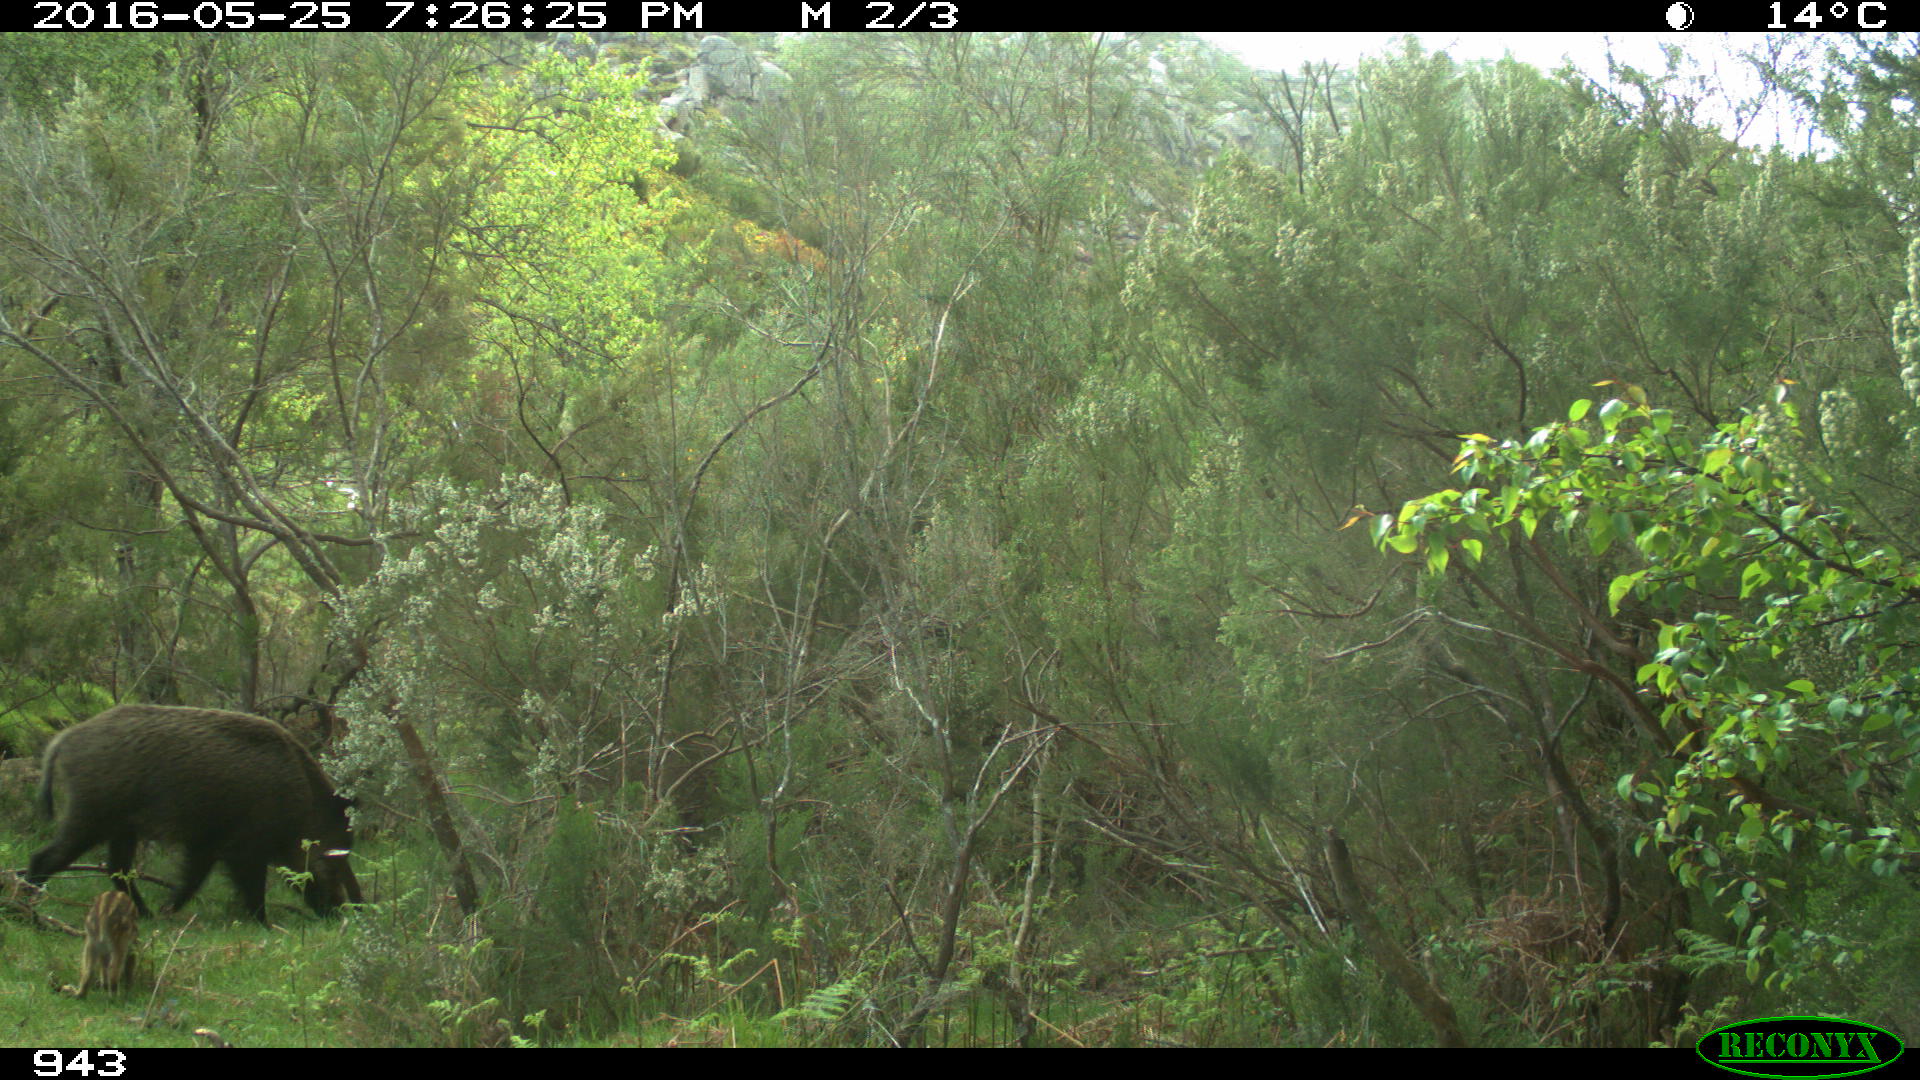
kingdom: Animalia
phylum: Chordata
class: Mammalia
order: Artiodactyla
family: Suidae
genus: Sus
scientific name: Sus scrofa
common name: Wild boar
